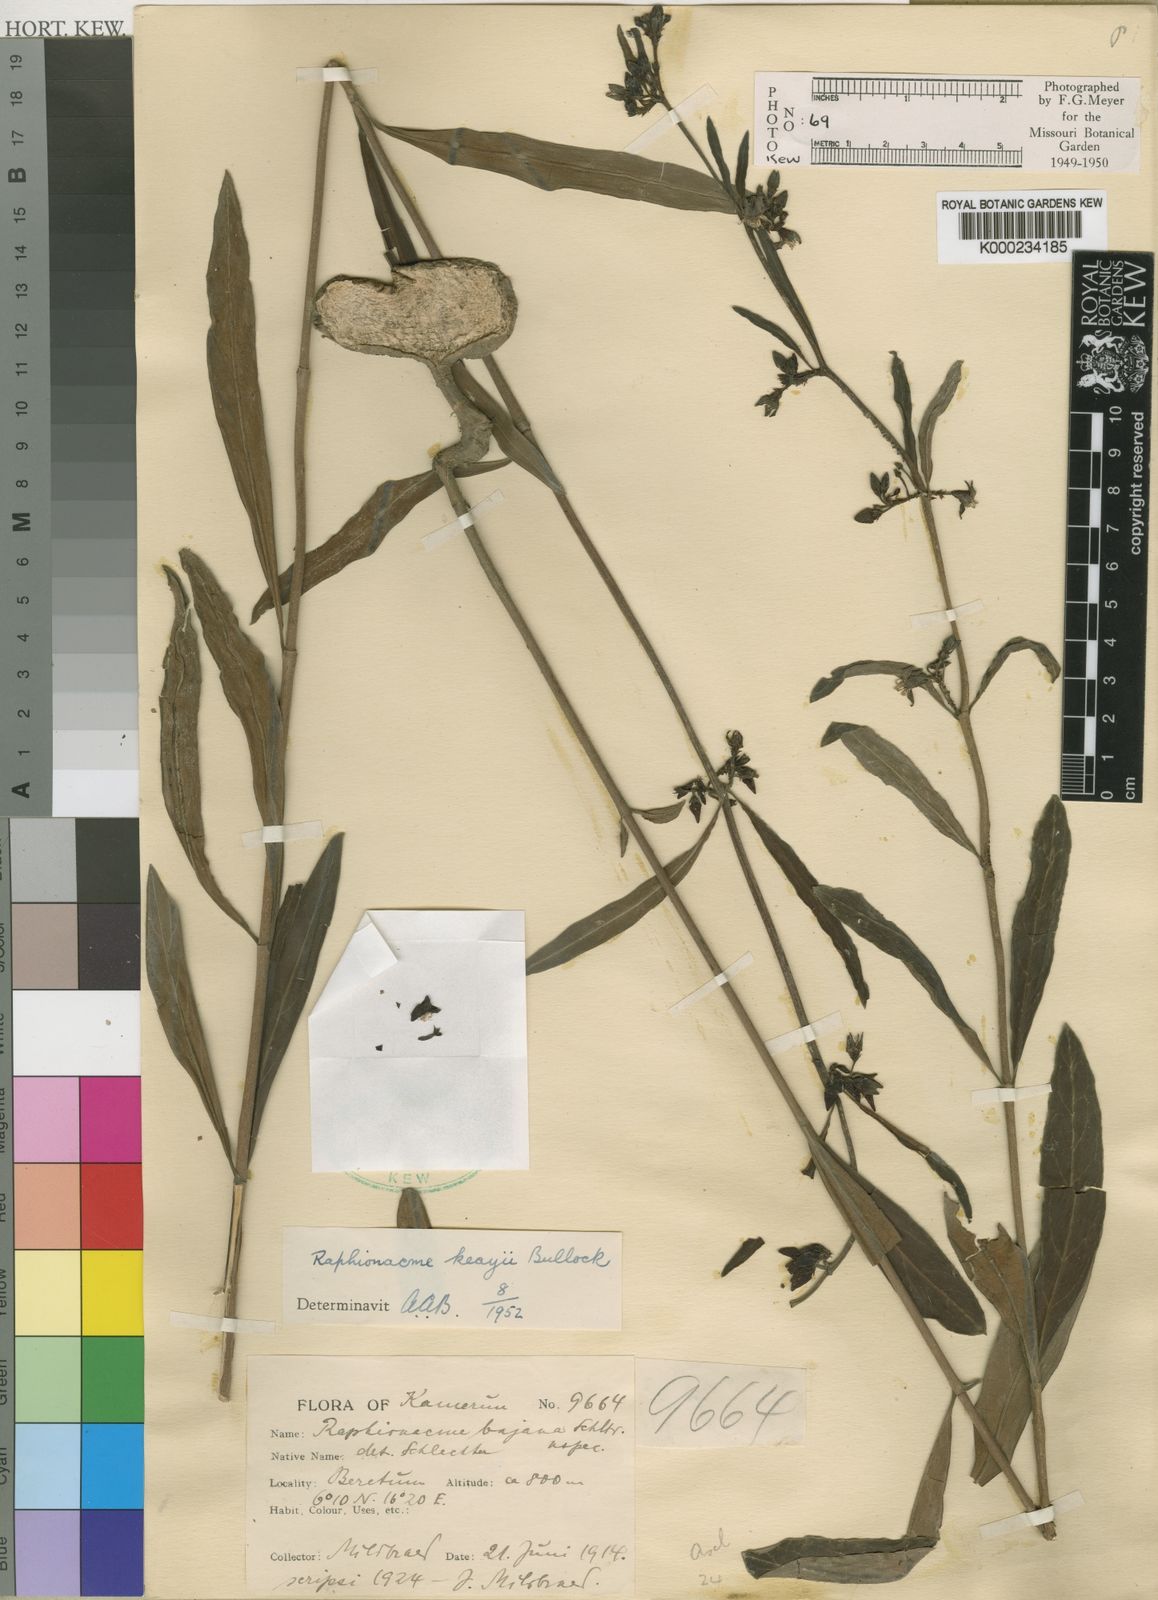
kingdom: Plantae
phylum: Tracheophyta
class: Magnoliopsida
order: Gentianales
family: Apocynaceae
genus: Raphionacme
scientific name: Raphionacme keayi
